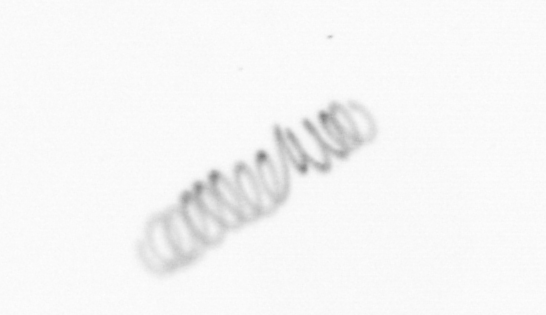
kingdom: Chromista
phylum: Ochrophyta
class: Bacillariophyceae
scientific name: Bacillariophyceae
